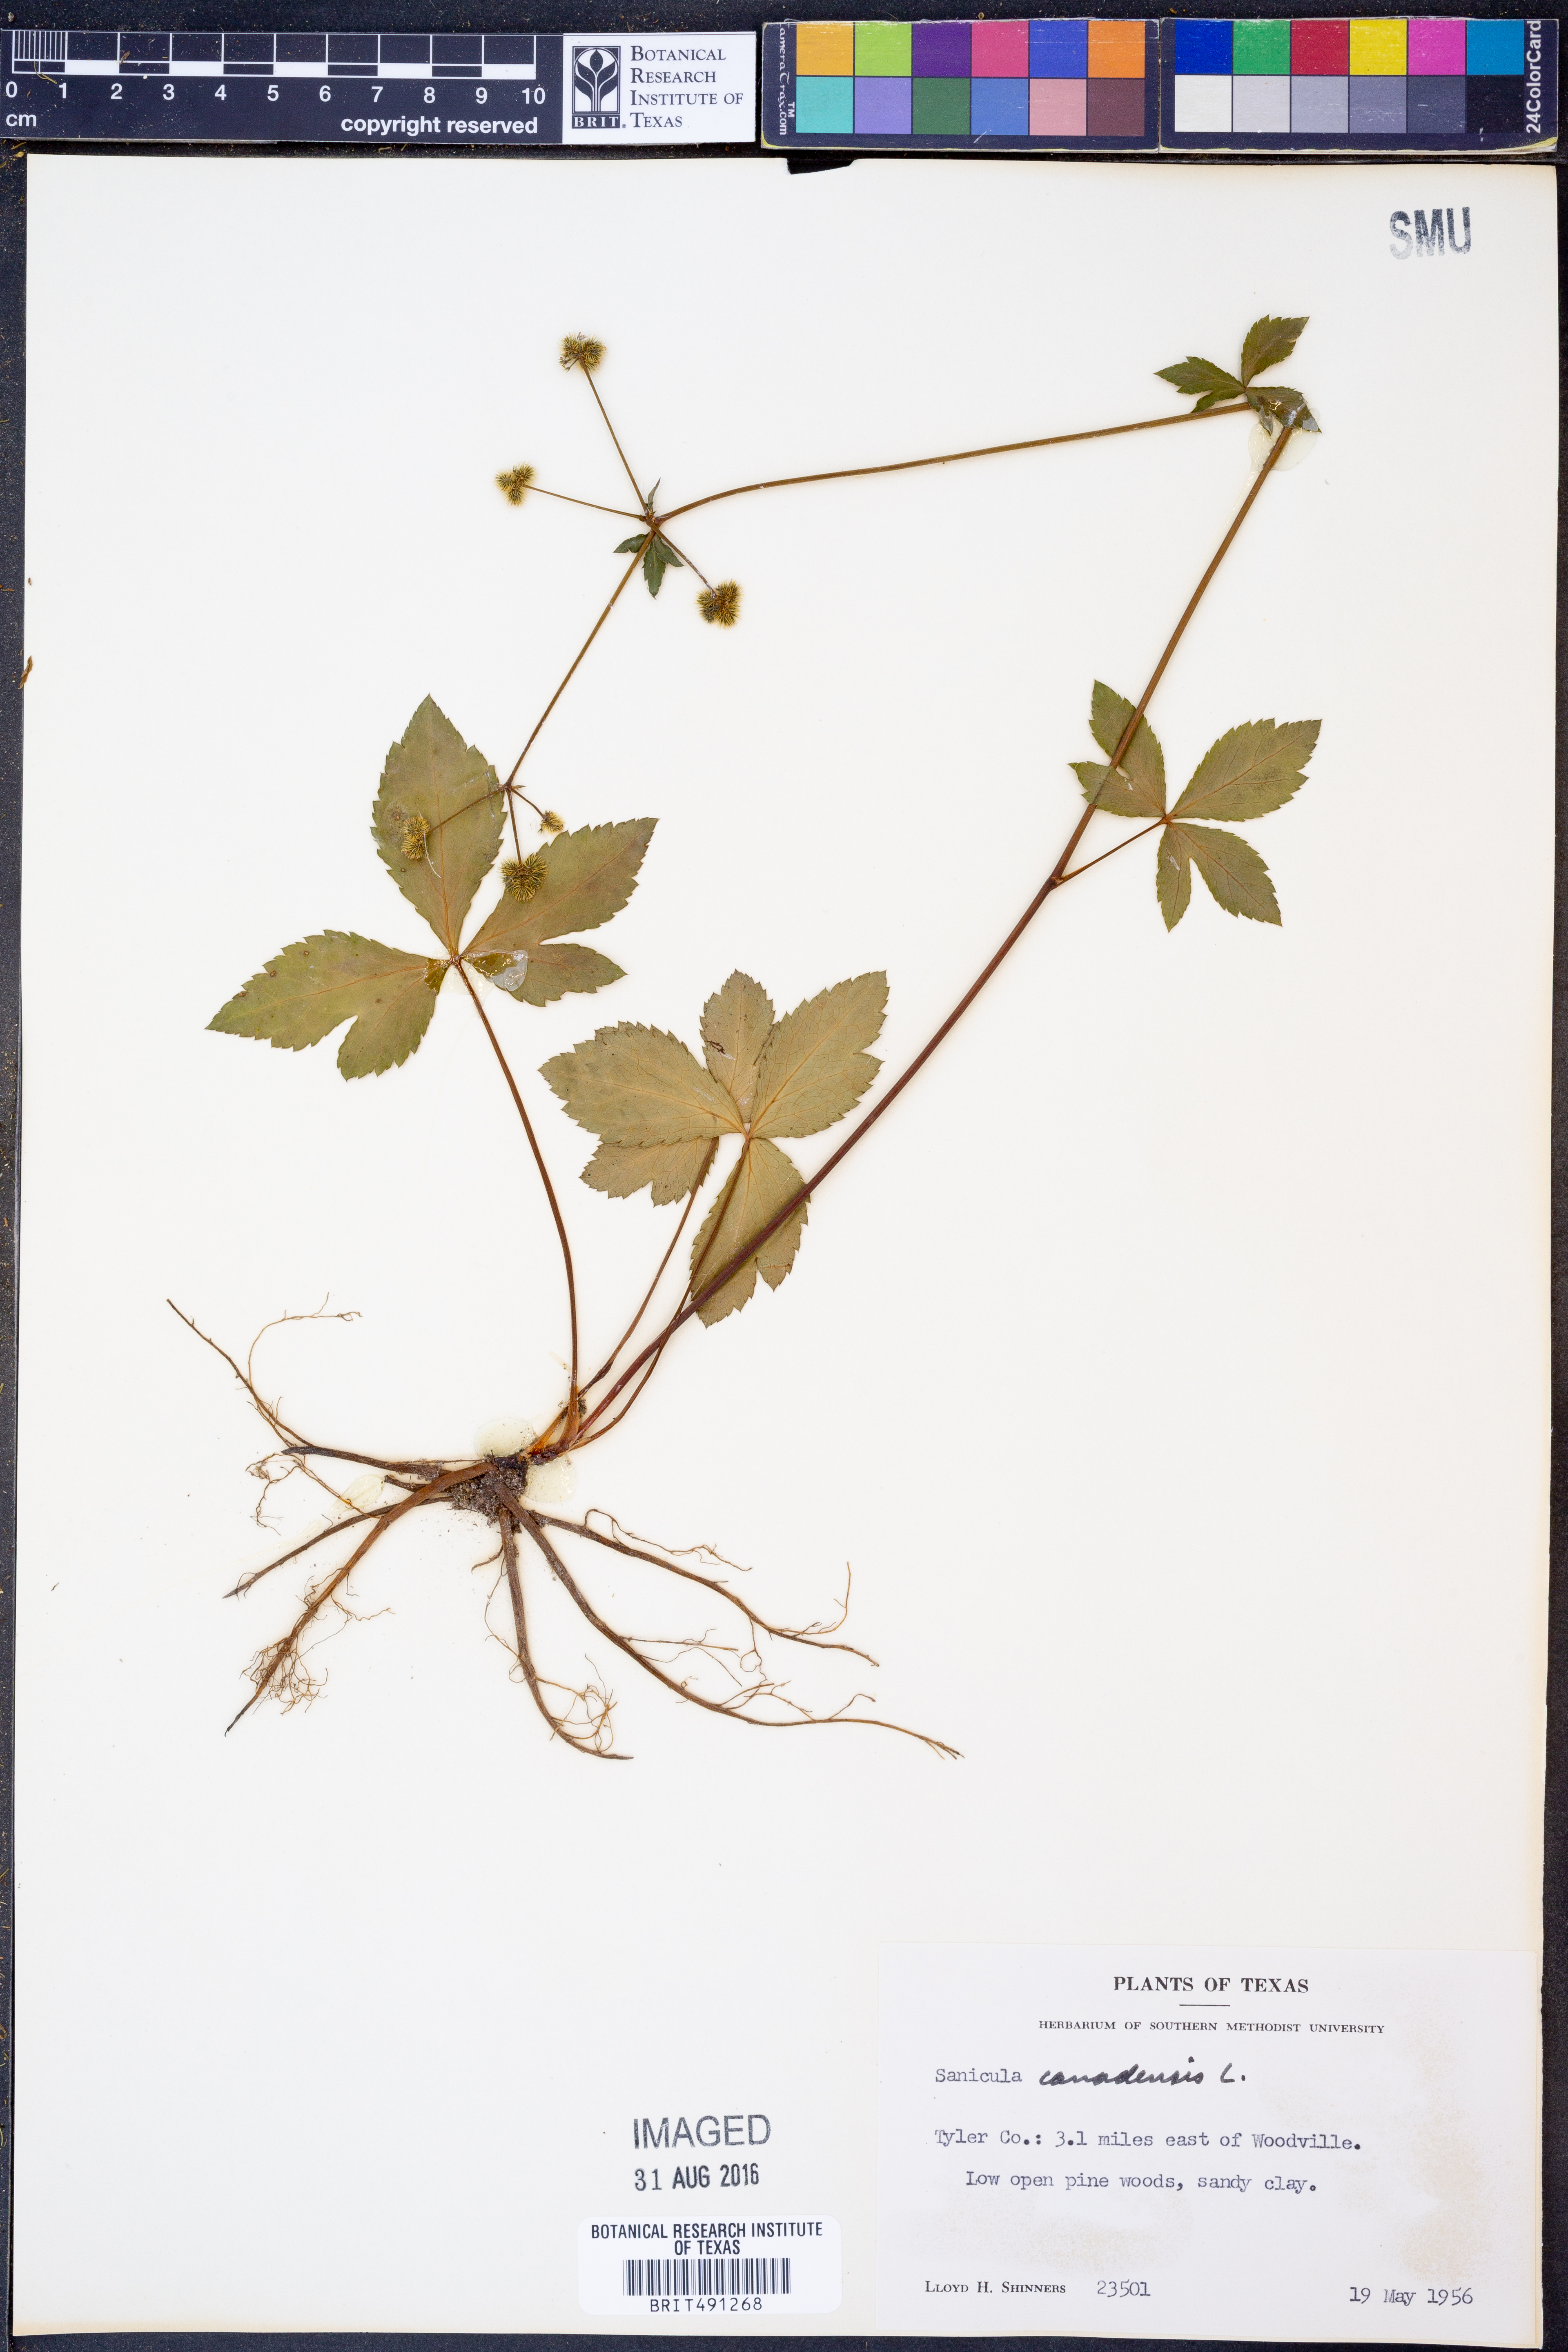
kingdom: Plantae
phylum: Tracheophyta
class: Magnoliopsida
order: Apiales
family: Apiaceae
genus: Sanicula
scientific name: Sanicula canadensis
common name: Canada sanicle
